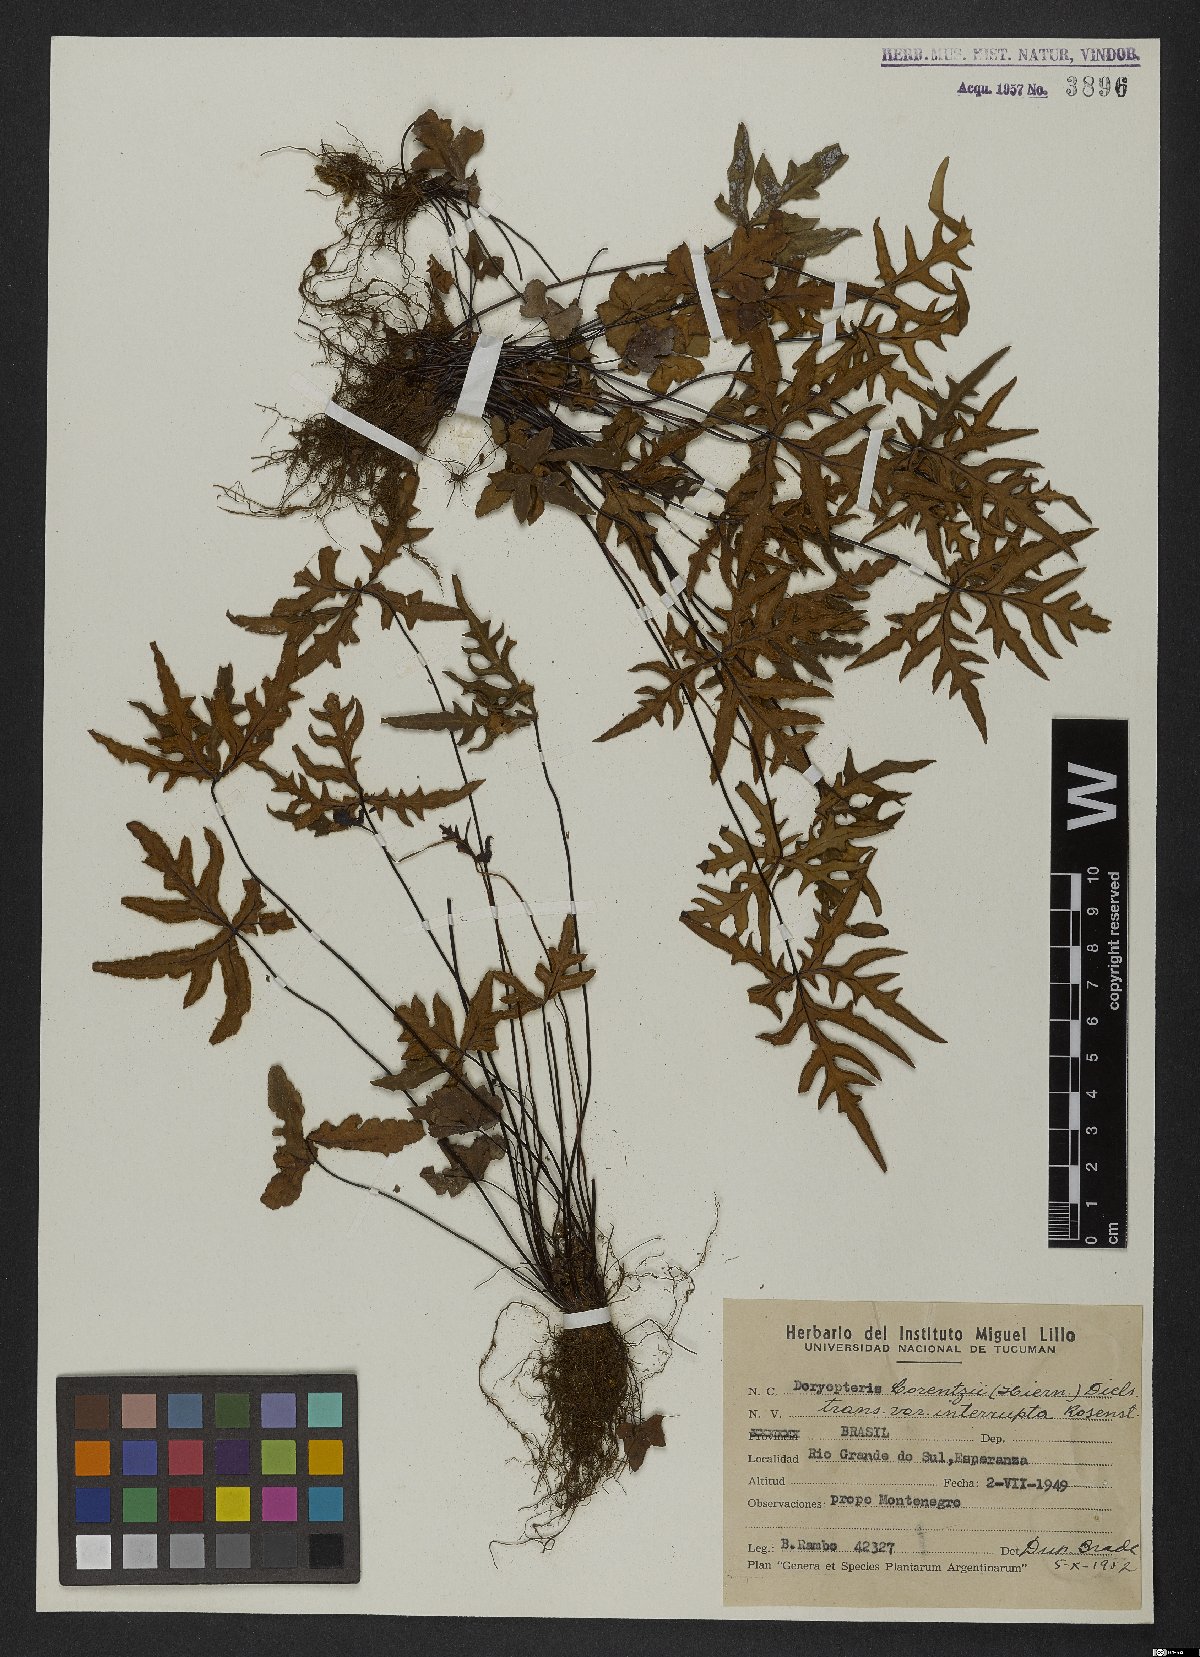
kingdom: Plantae
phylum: Tracheophyta
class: Polypodiopsida
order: Polypodiales
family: Pteridaceae
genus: Doryopteris
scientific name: Doryopteris lorentzii
